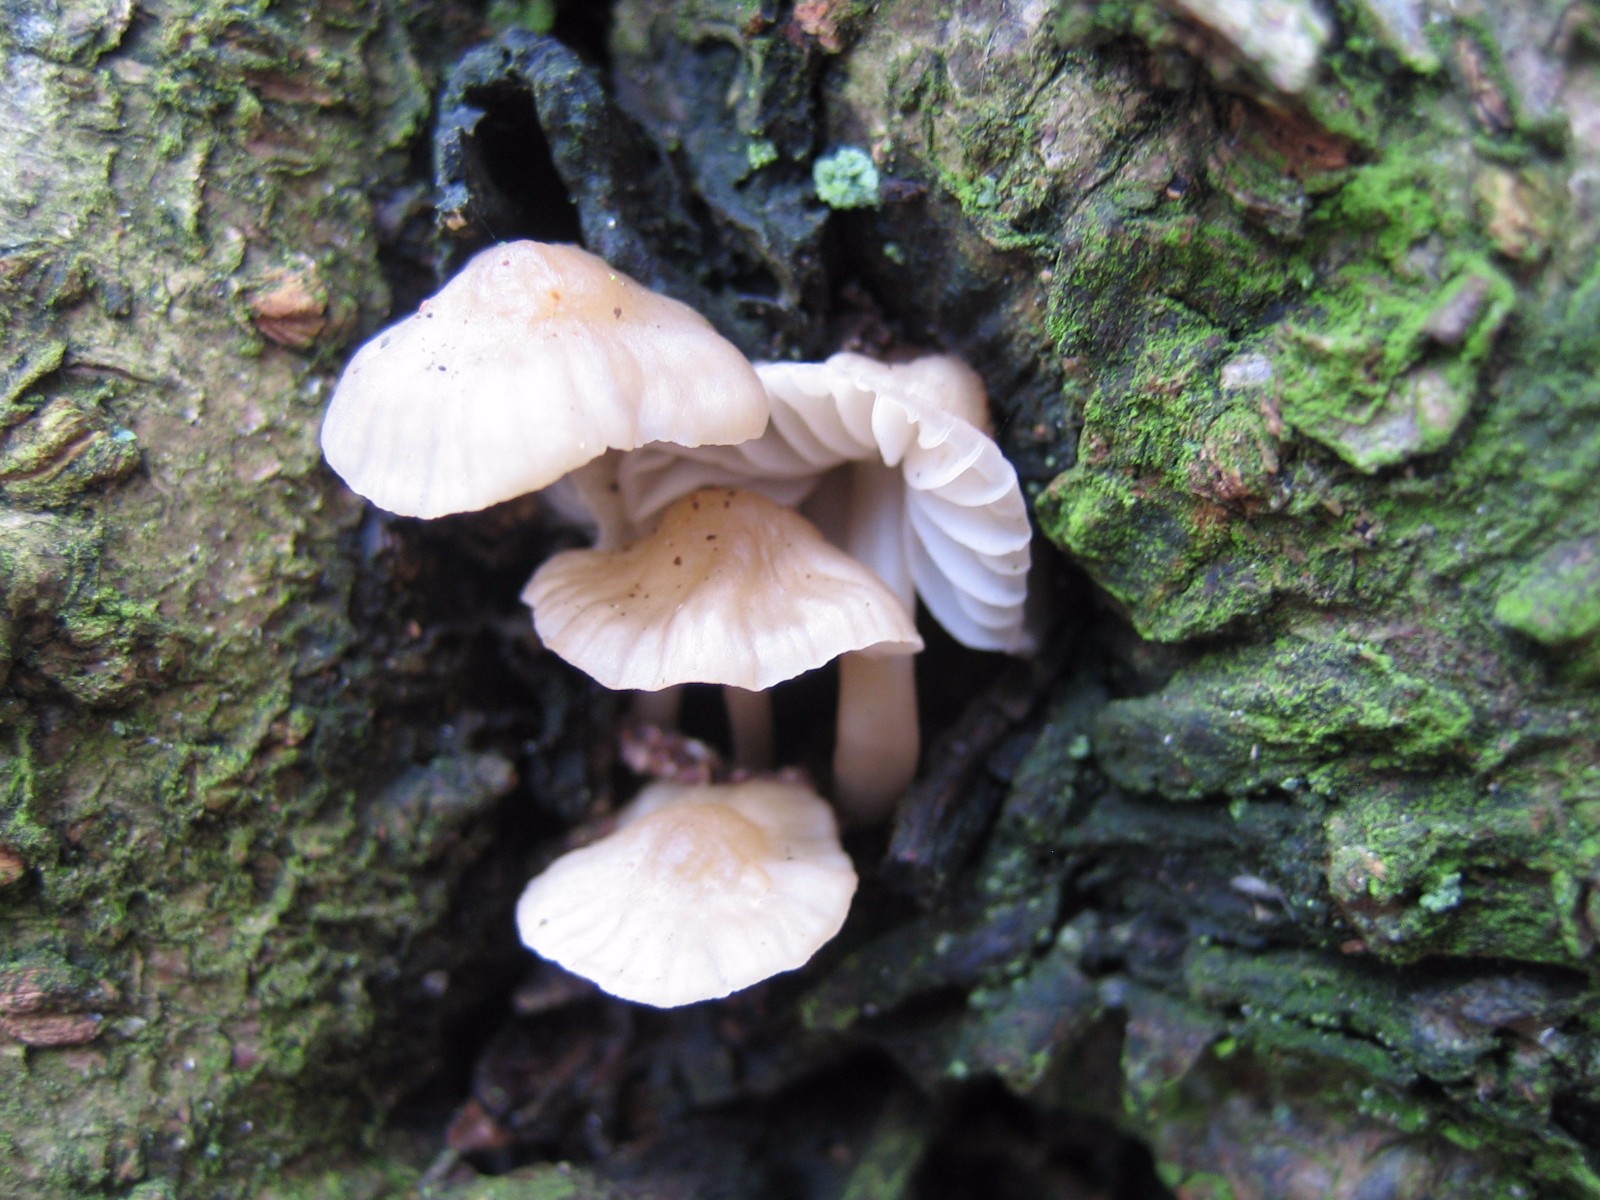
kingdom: Fungi
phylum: Basidiomycota
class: Agaricomycetes
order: Agaricales
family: Mycenaceae
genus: Mycena
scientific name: Mycena
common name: huesvamp
